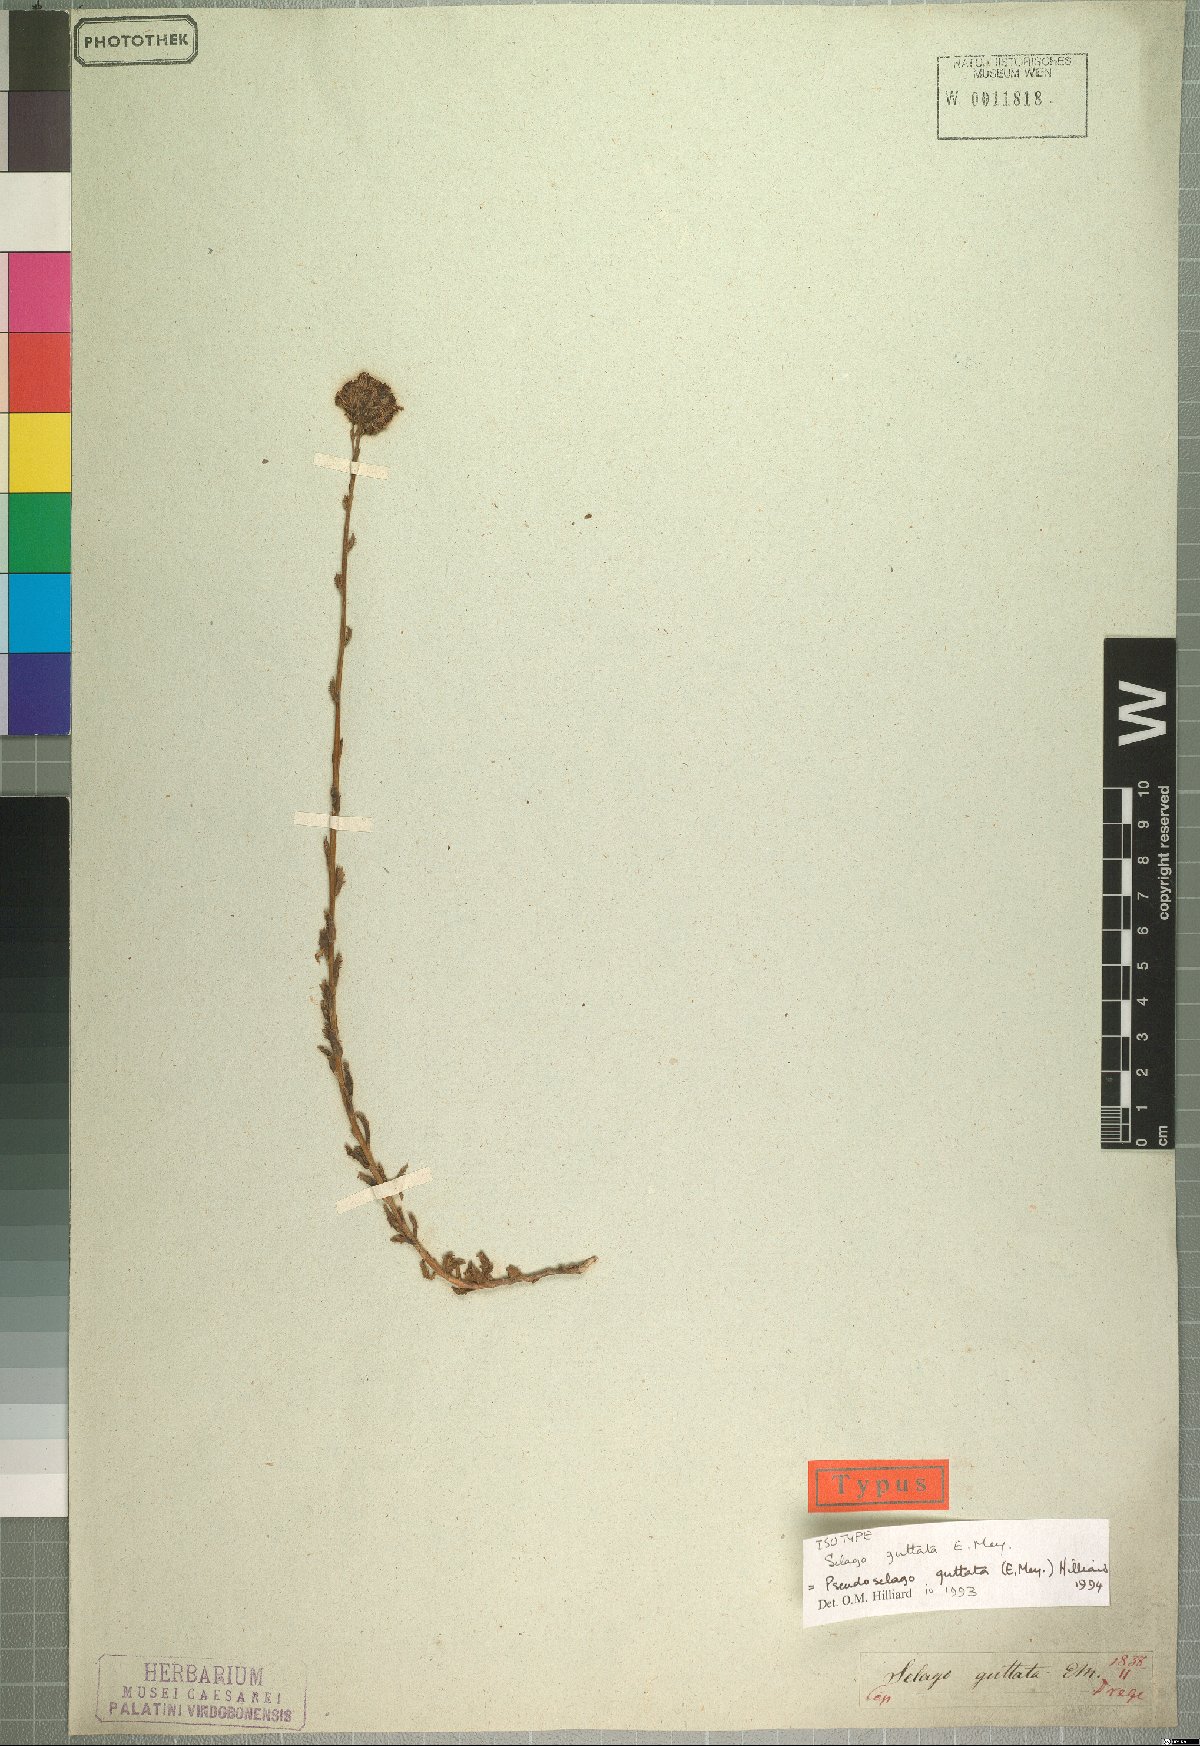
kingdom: Plantae
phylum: Tracheophyta
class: Magnoliopsida
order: Lamiales
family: Scrophulariaceae
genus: Pseudoselago
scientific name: Pseudoselago guttata
